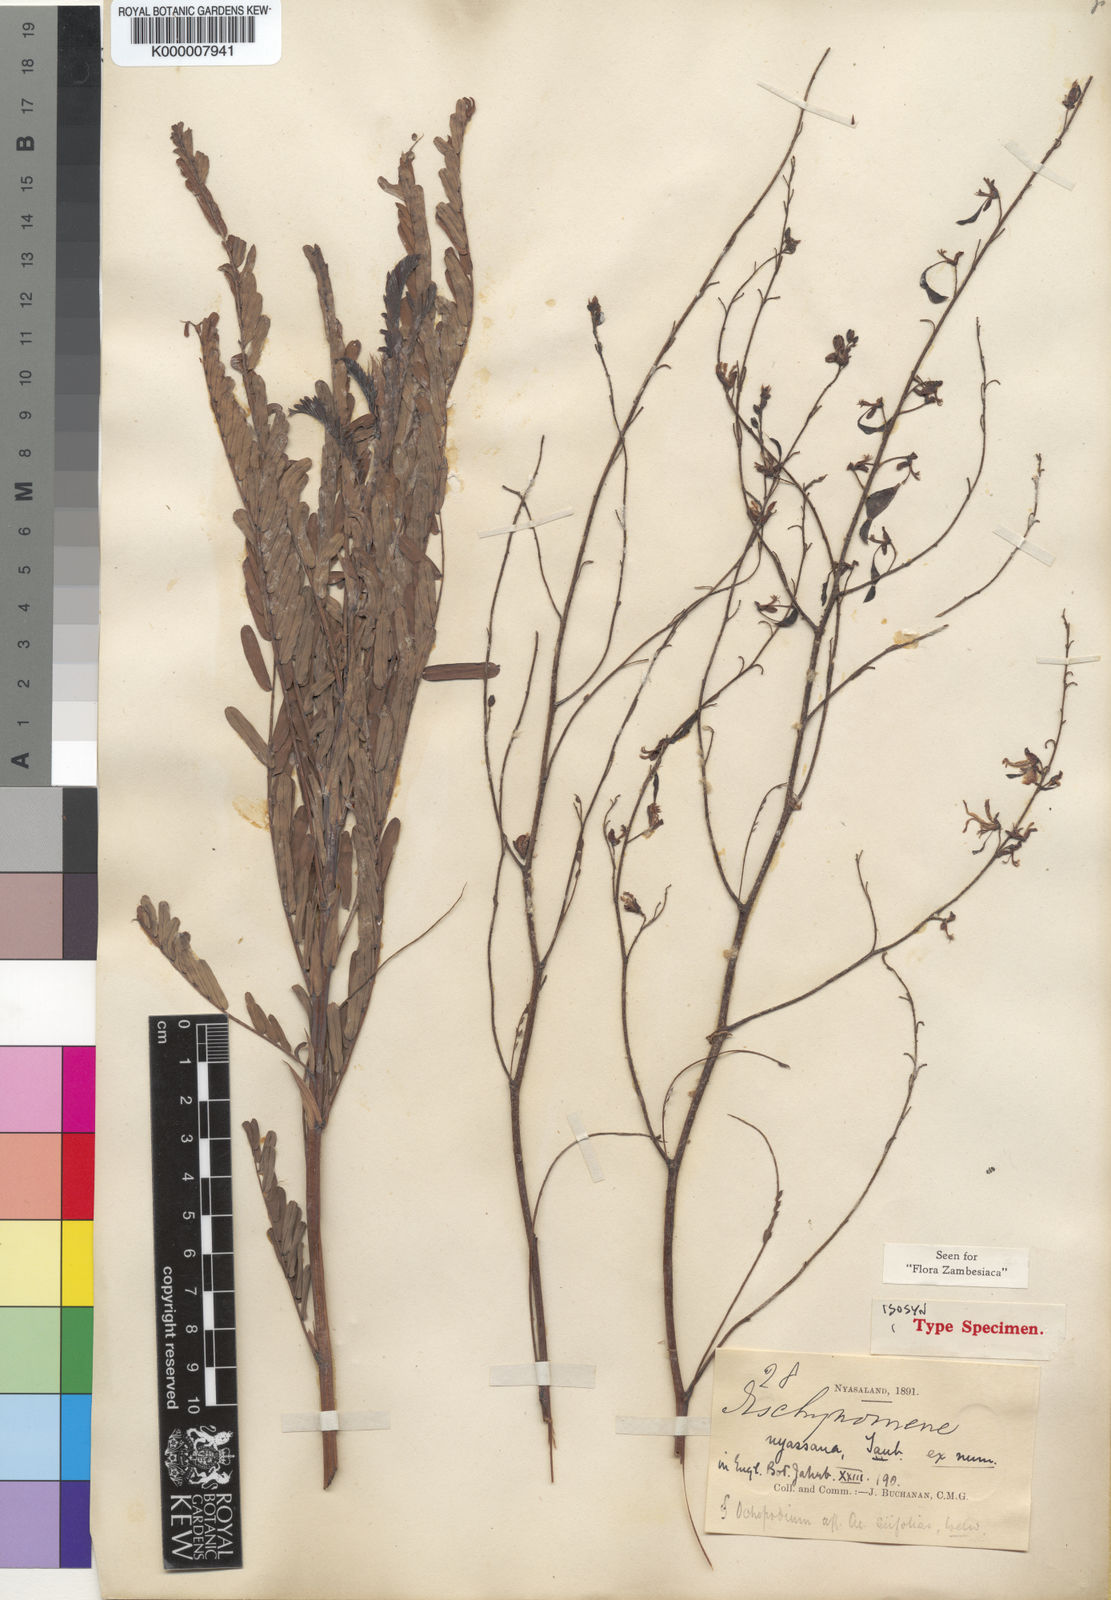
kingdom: Plantae
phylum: Tracheophyta
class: Magnoliopsida
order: Fabales
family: Fabaceae
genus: Aeschynomene
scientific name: Aeschynomene nyassana
